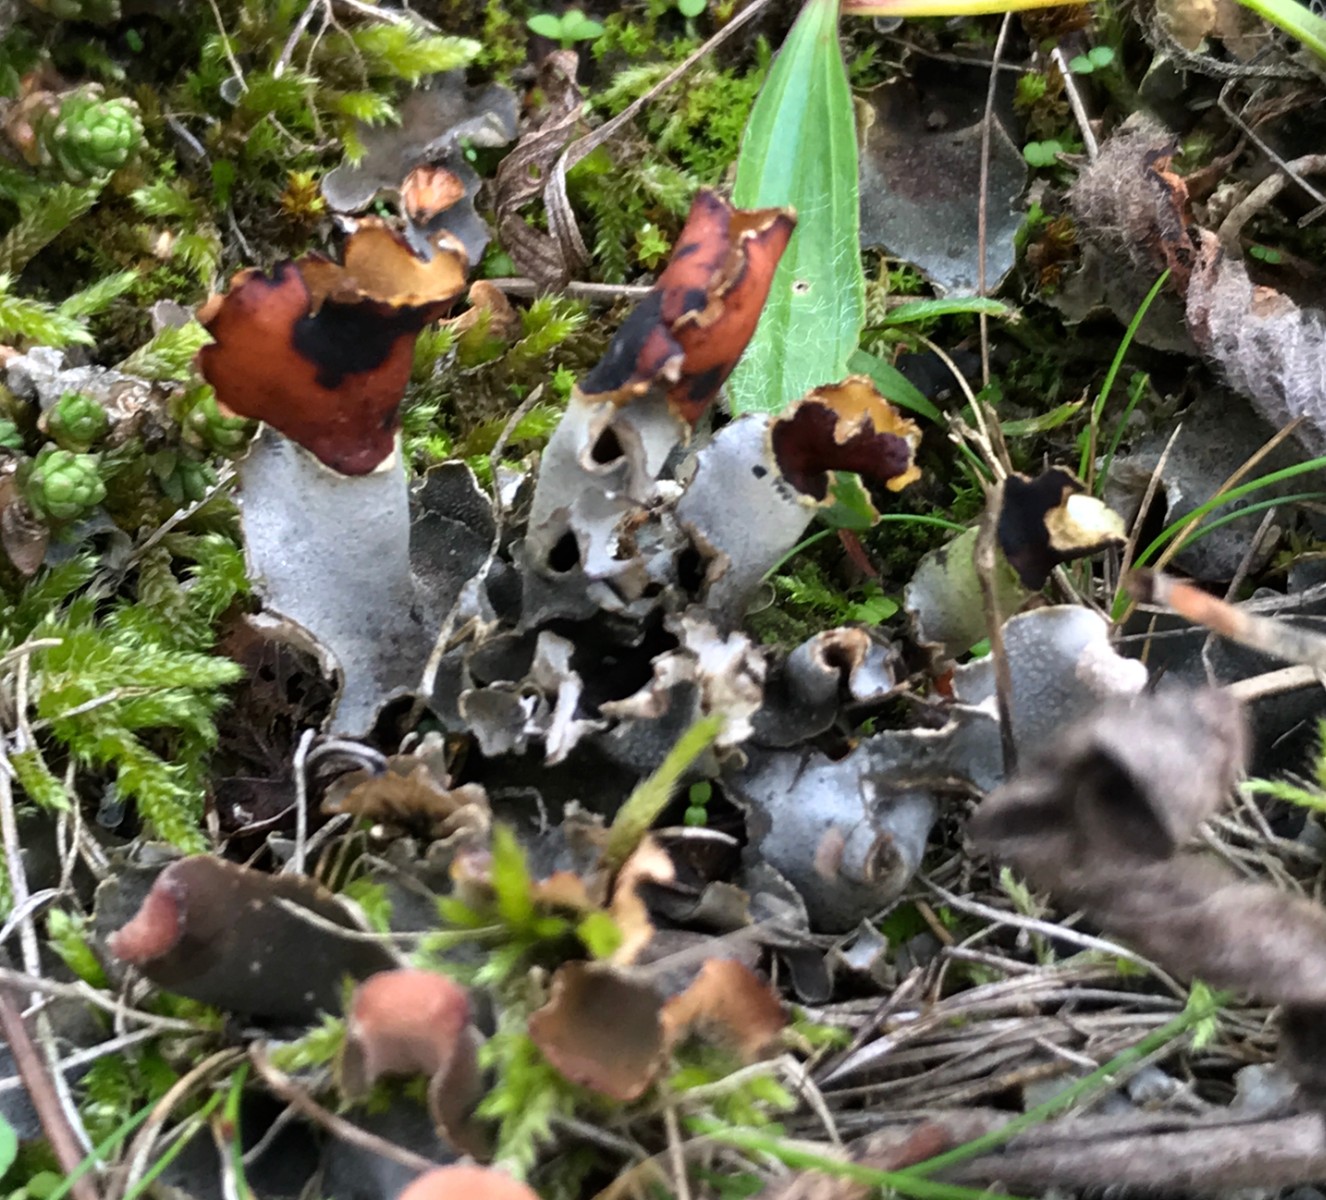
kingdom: Fungi
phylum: Ascomycota
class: Lecanoromycetes
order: Peltigerales
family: Peltigeraceae
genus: Peltigera
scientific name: Peltigera didactyla
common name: liden skjoldlav
